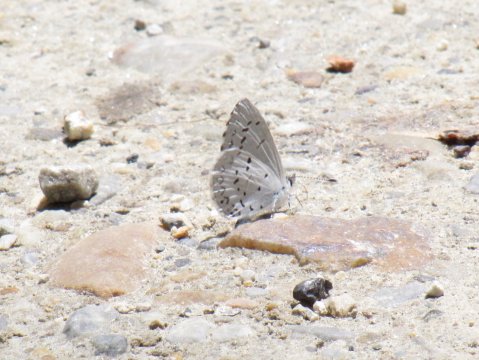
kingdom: Animalia
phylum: Arthropoda
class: Insecta
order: Lepidoptera
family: Lycaenidae
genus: Celastrina
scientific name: Celastrina lucia
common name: Northern Spring Azure
